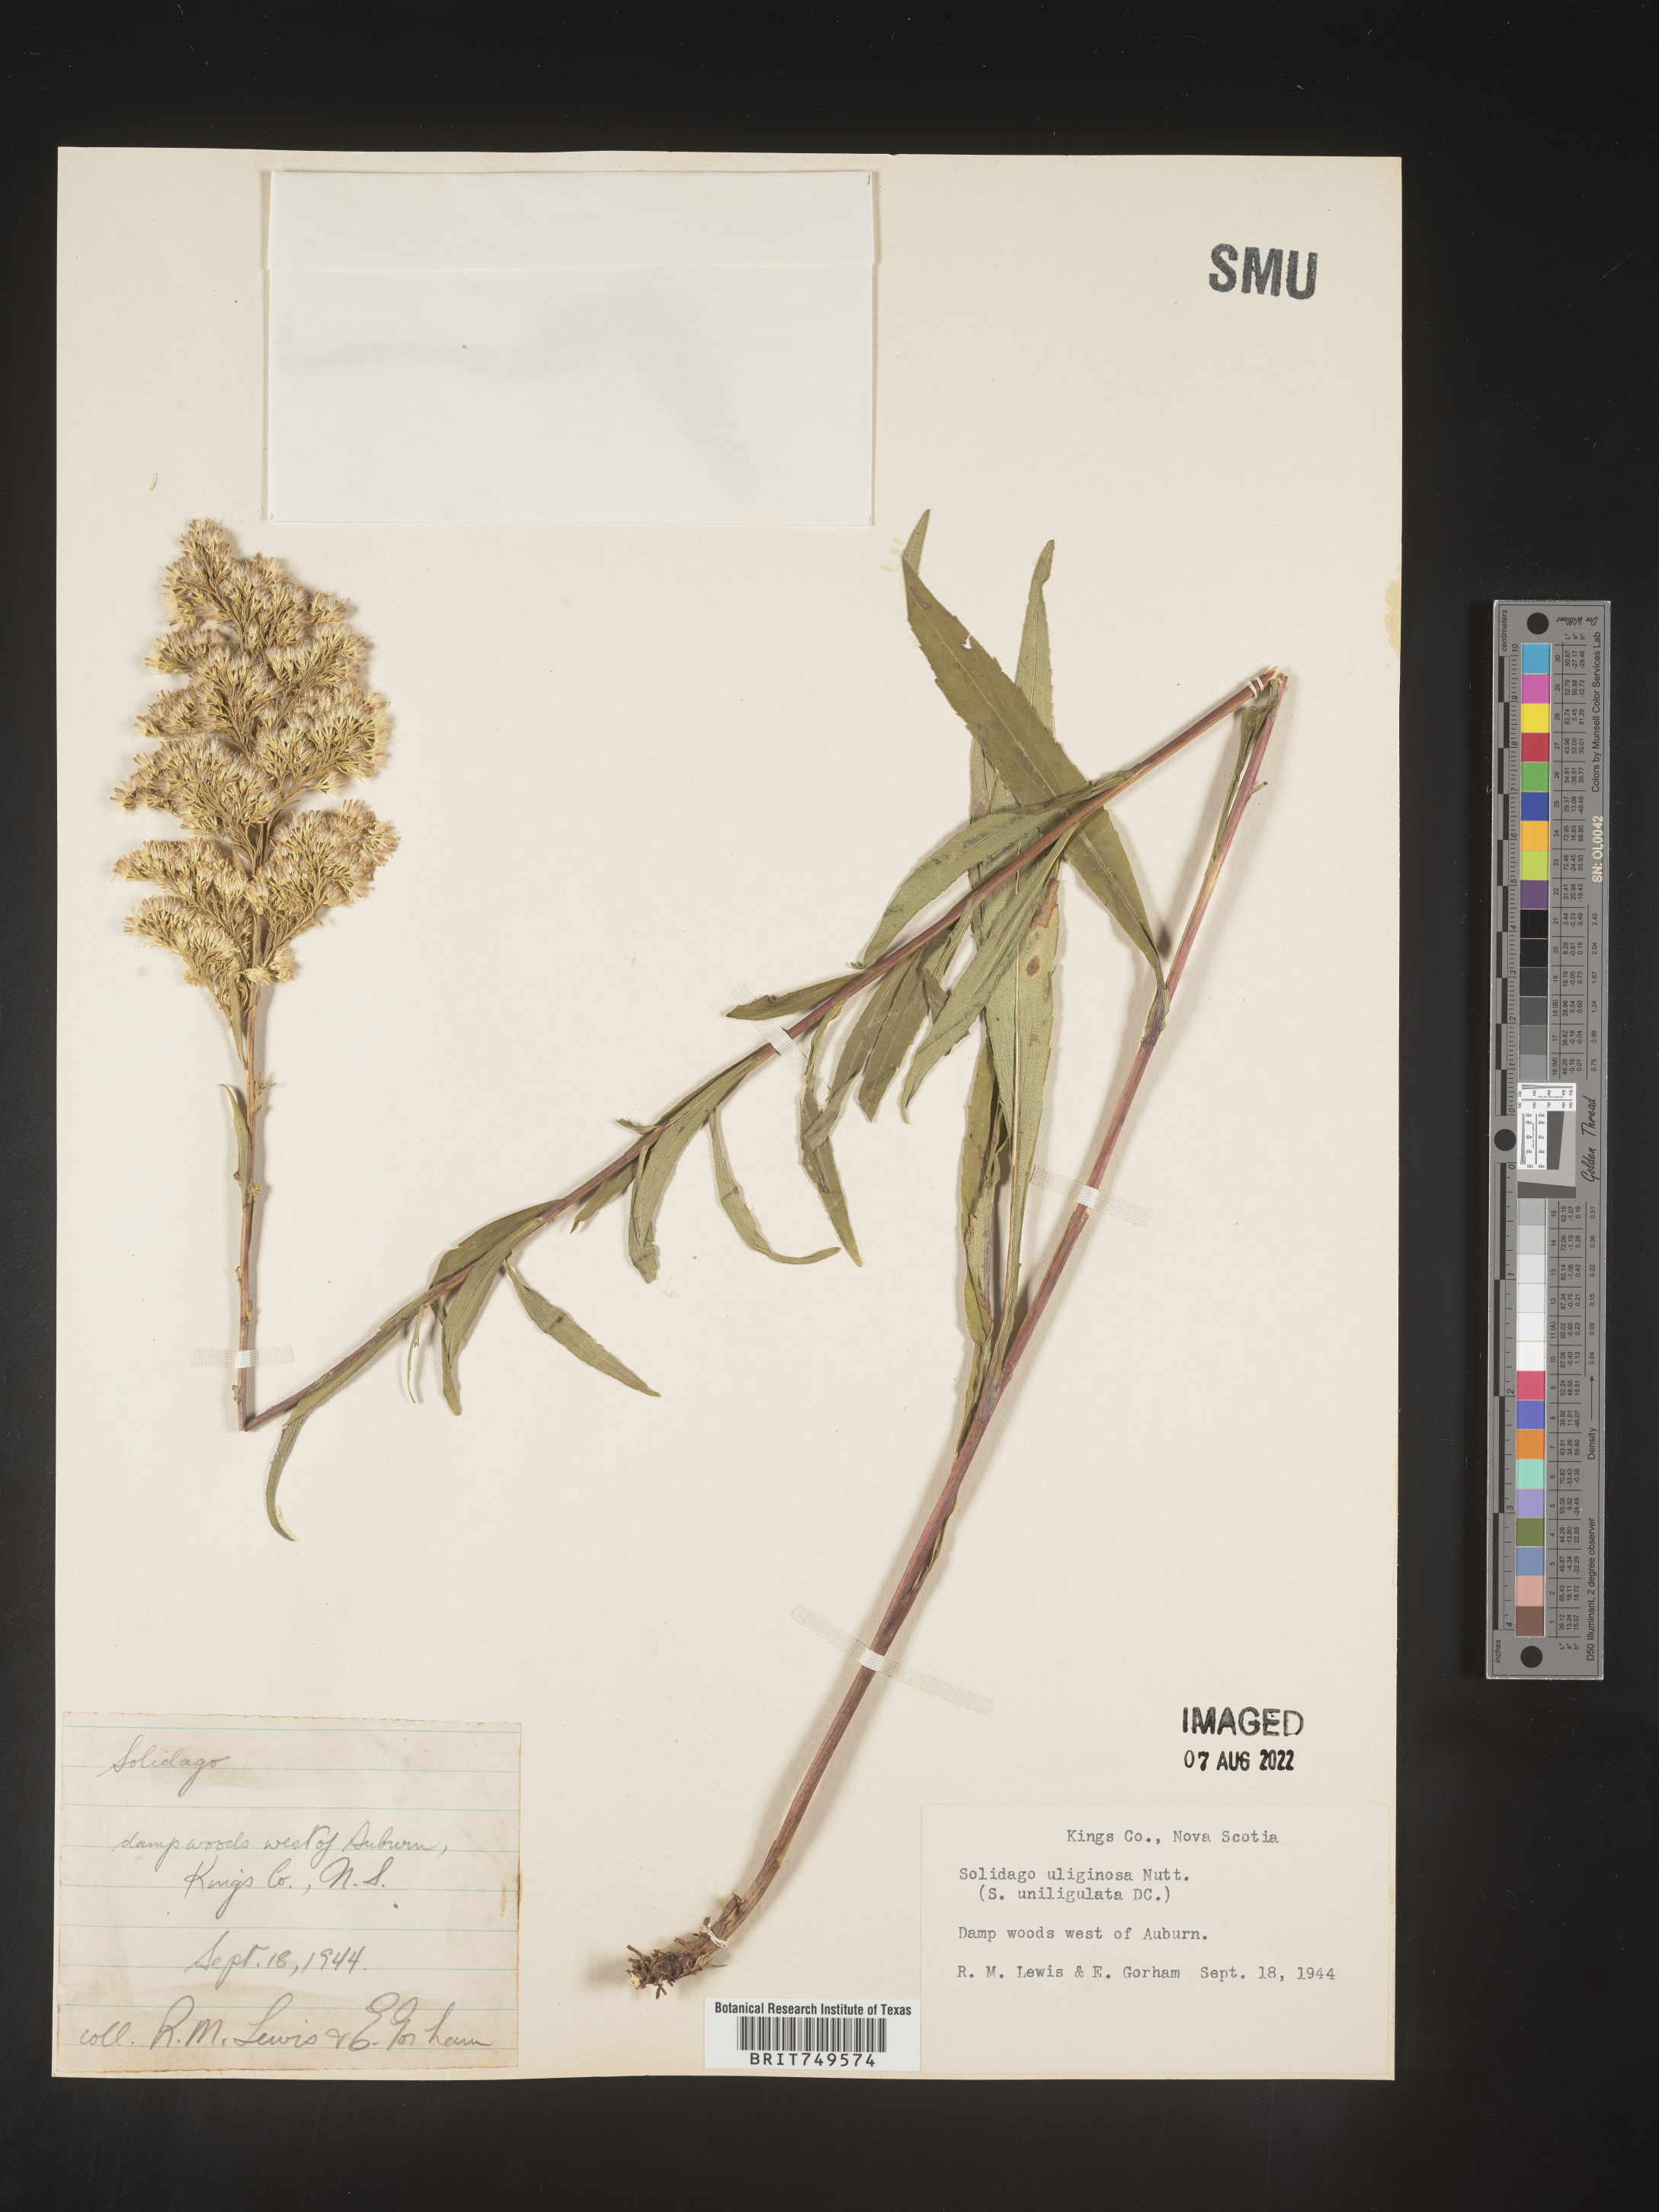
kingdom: Plantae
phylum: Tracheophyta
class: Magnoliopsida
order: Asterales
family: Asteraceae
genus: Solidago
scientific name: Solidago uliginosa
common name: Bog goldenrod
